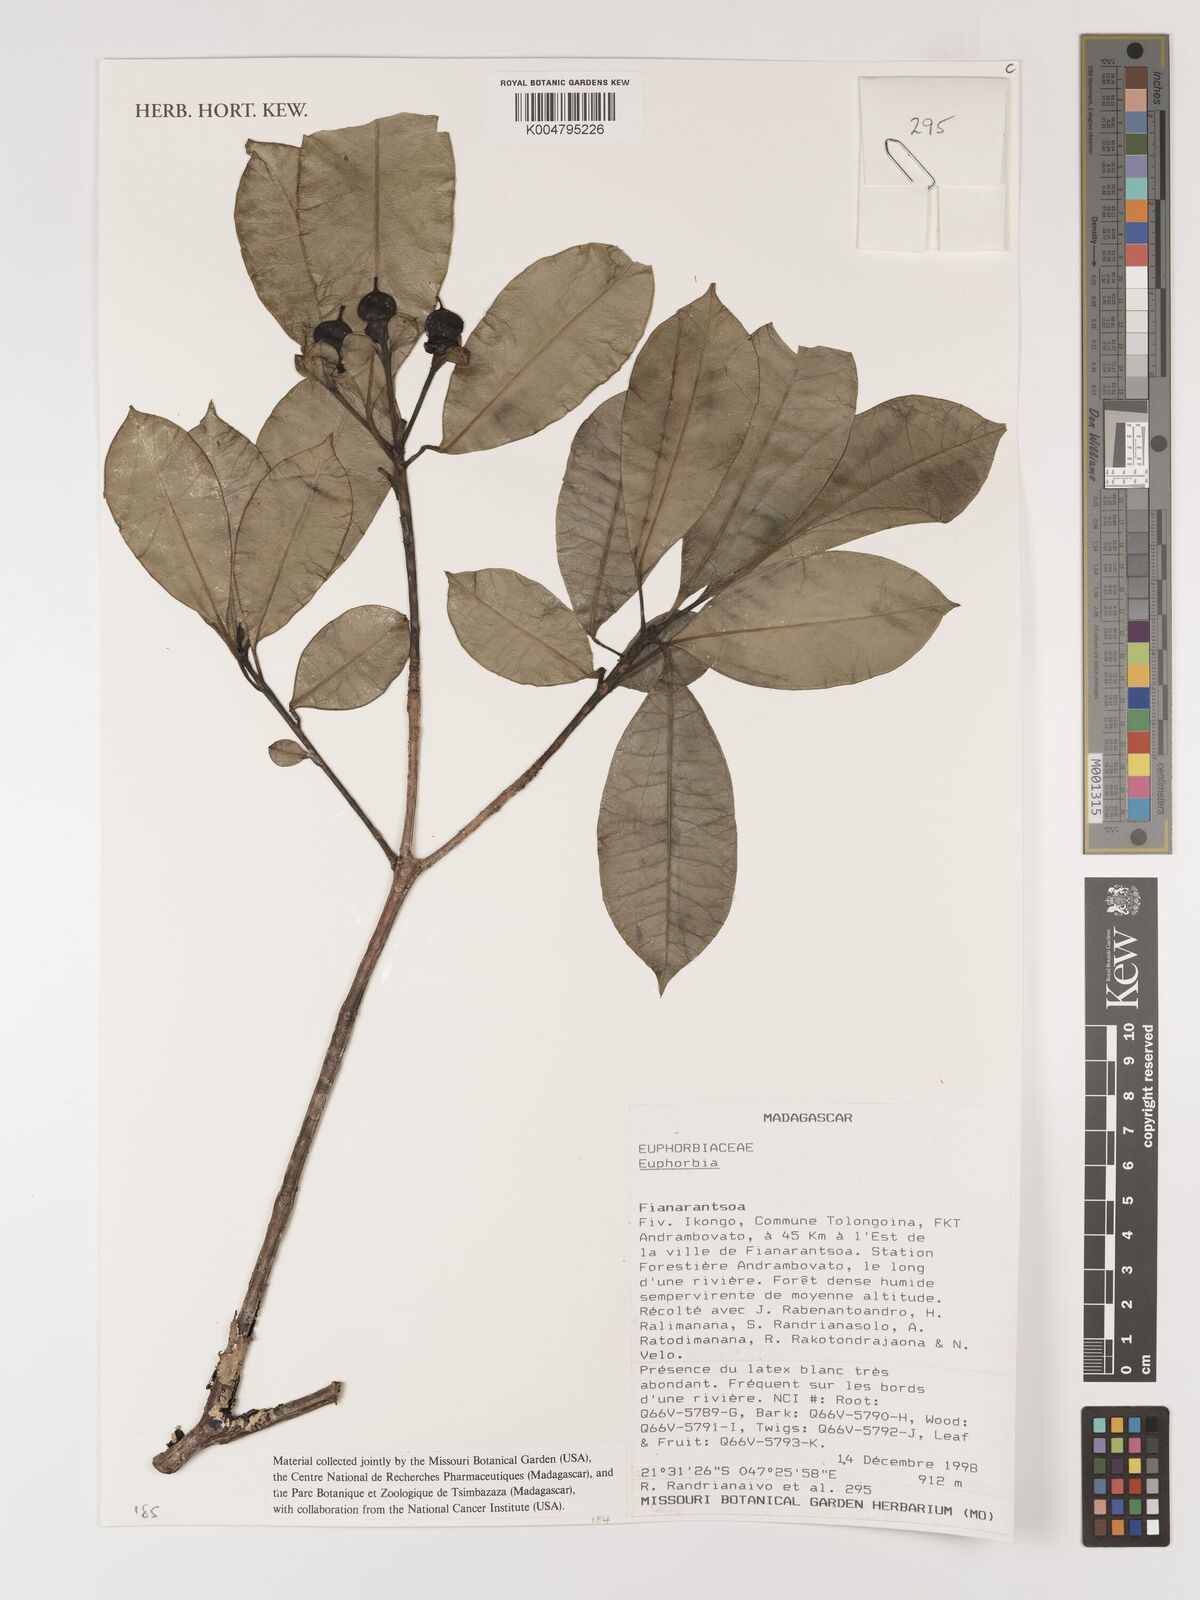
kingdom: Plantae
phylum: Tracheophyta
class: Magnoliopsida
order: Malpighiales
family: Euphorbiaceae
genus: Euphorbia
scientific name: Euphorbia
